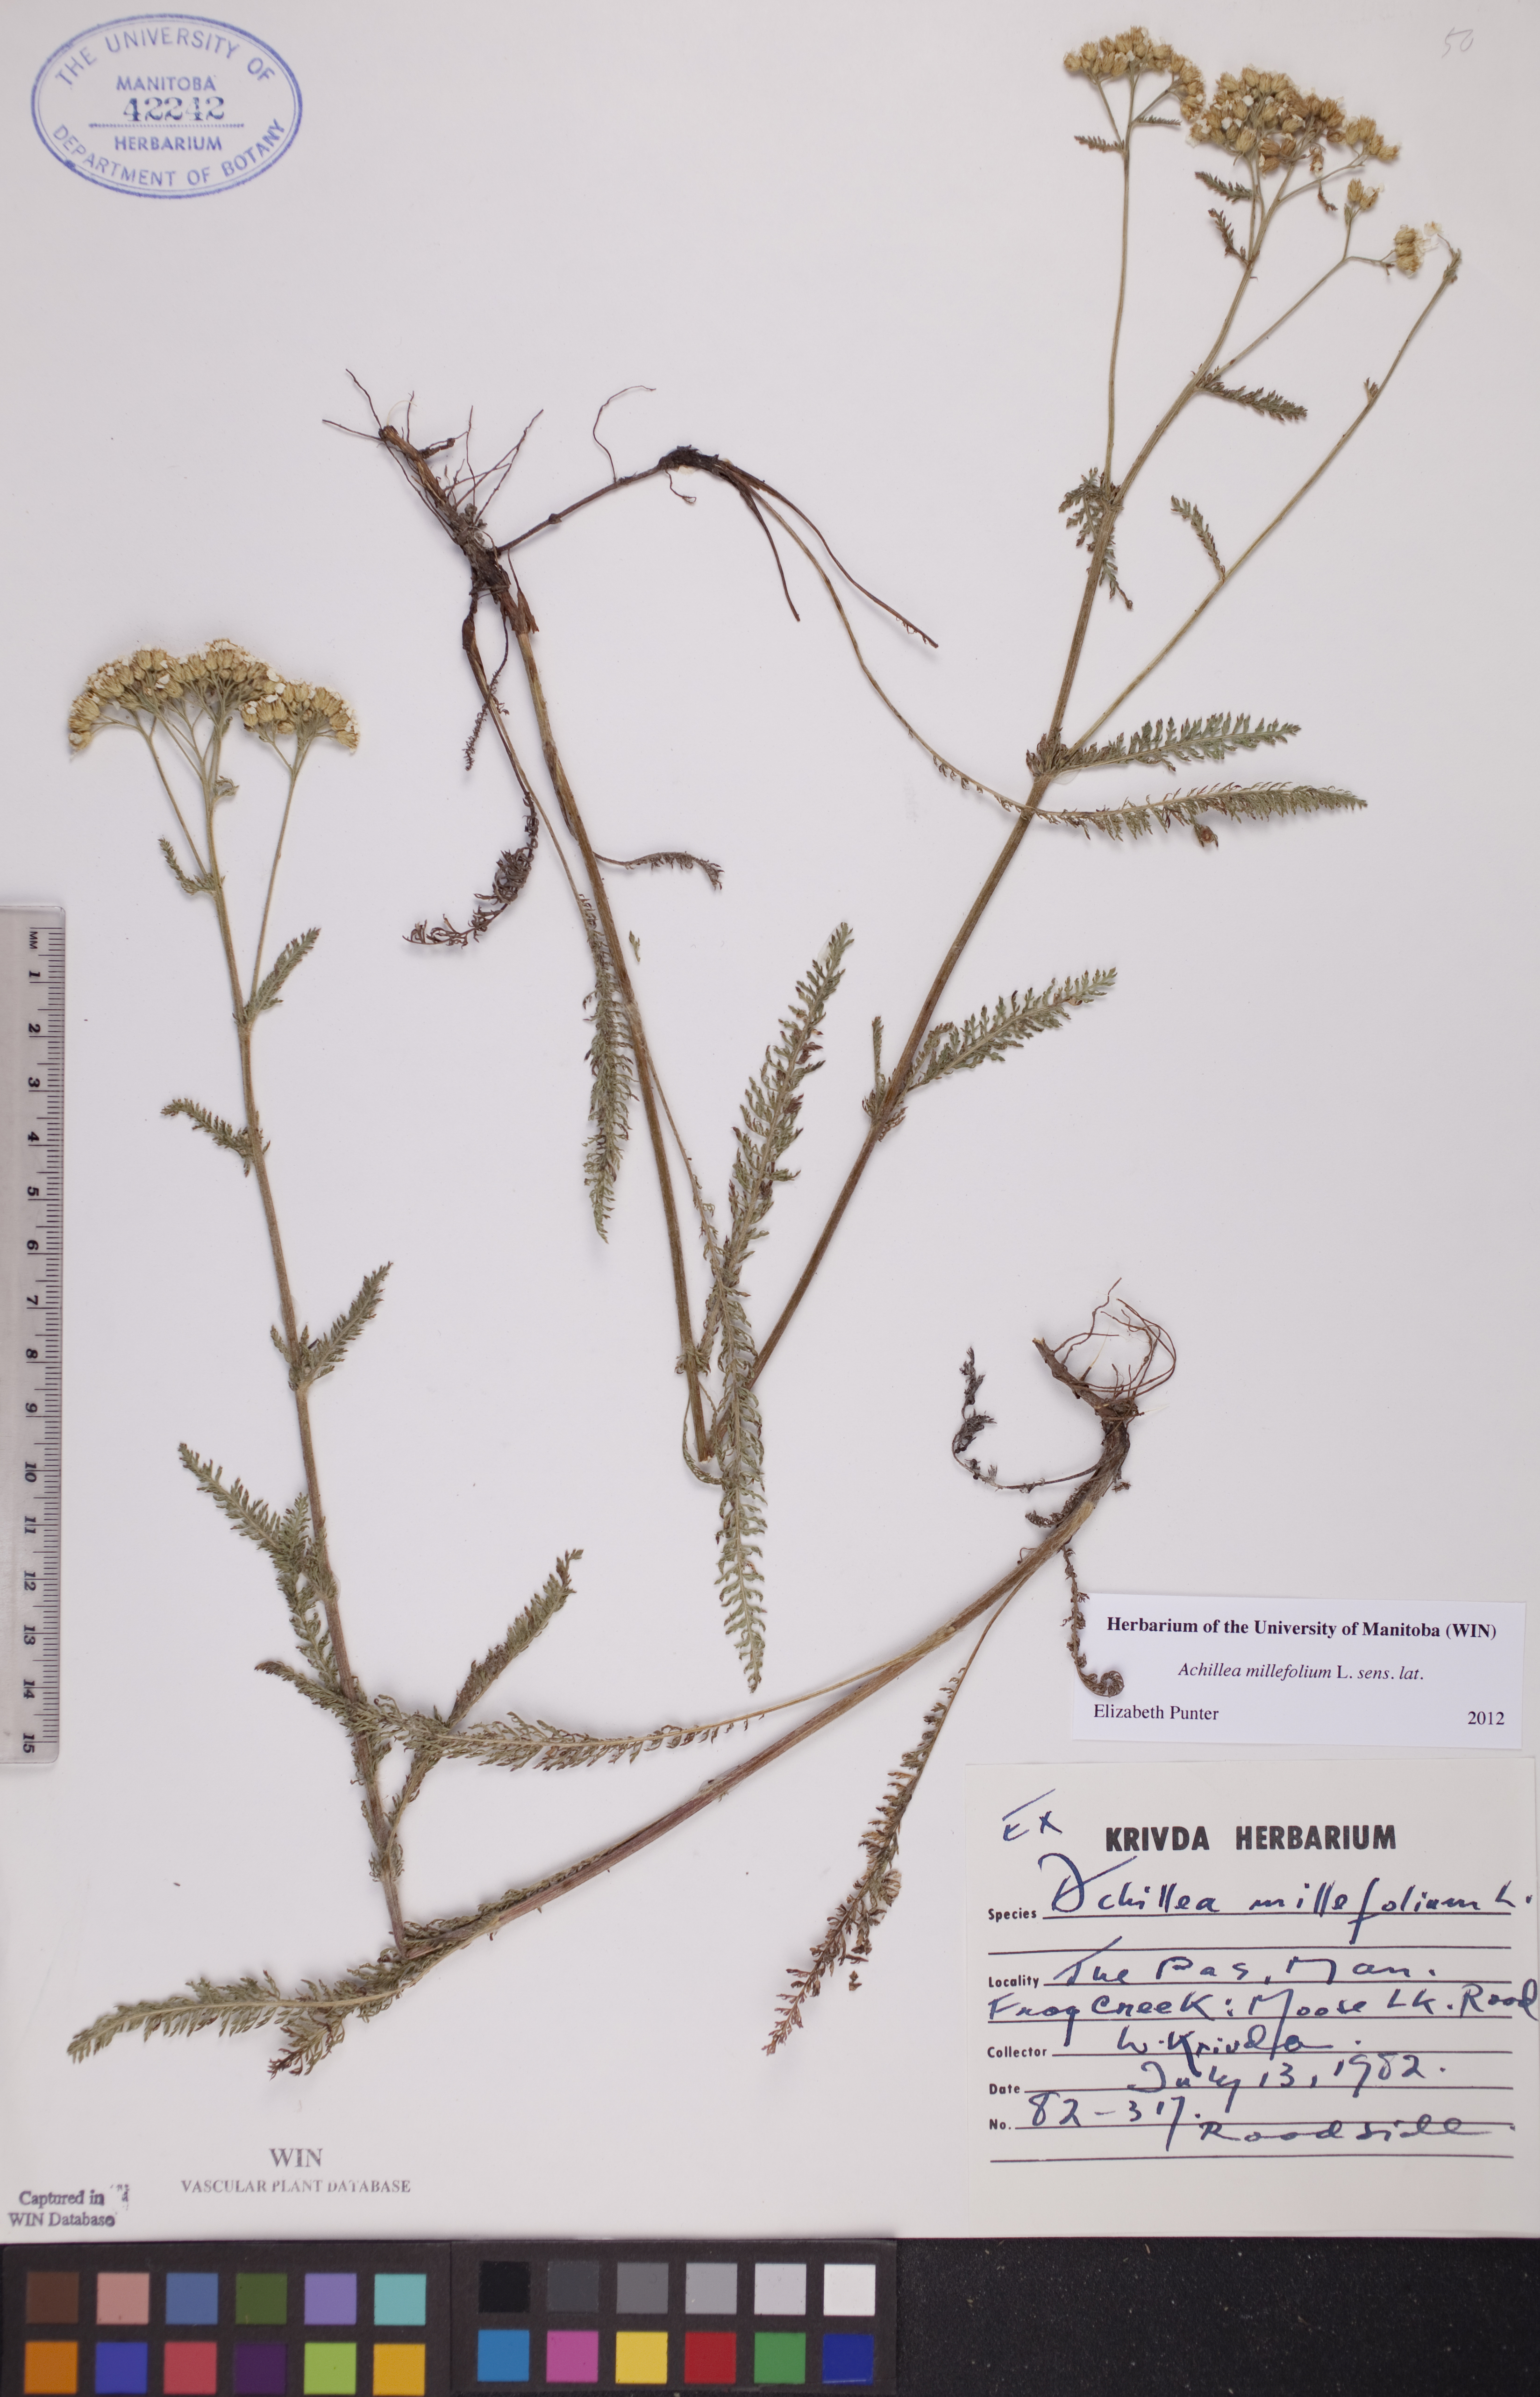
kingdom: Plantae
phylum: Tracheophyta
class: Magnoliopsida
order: Asterales
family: Asteraceae
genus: Achillea
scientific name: Achillea millefolium
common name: Yarrow
